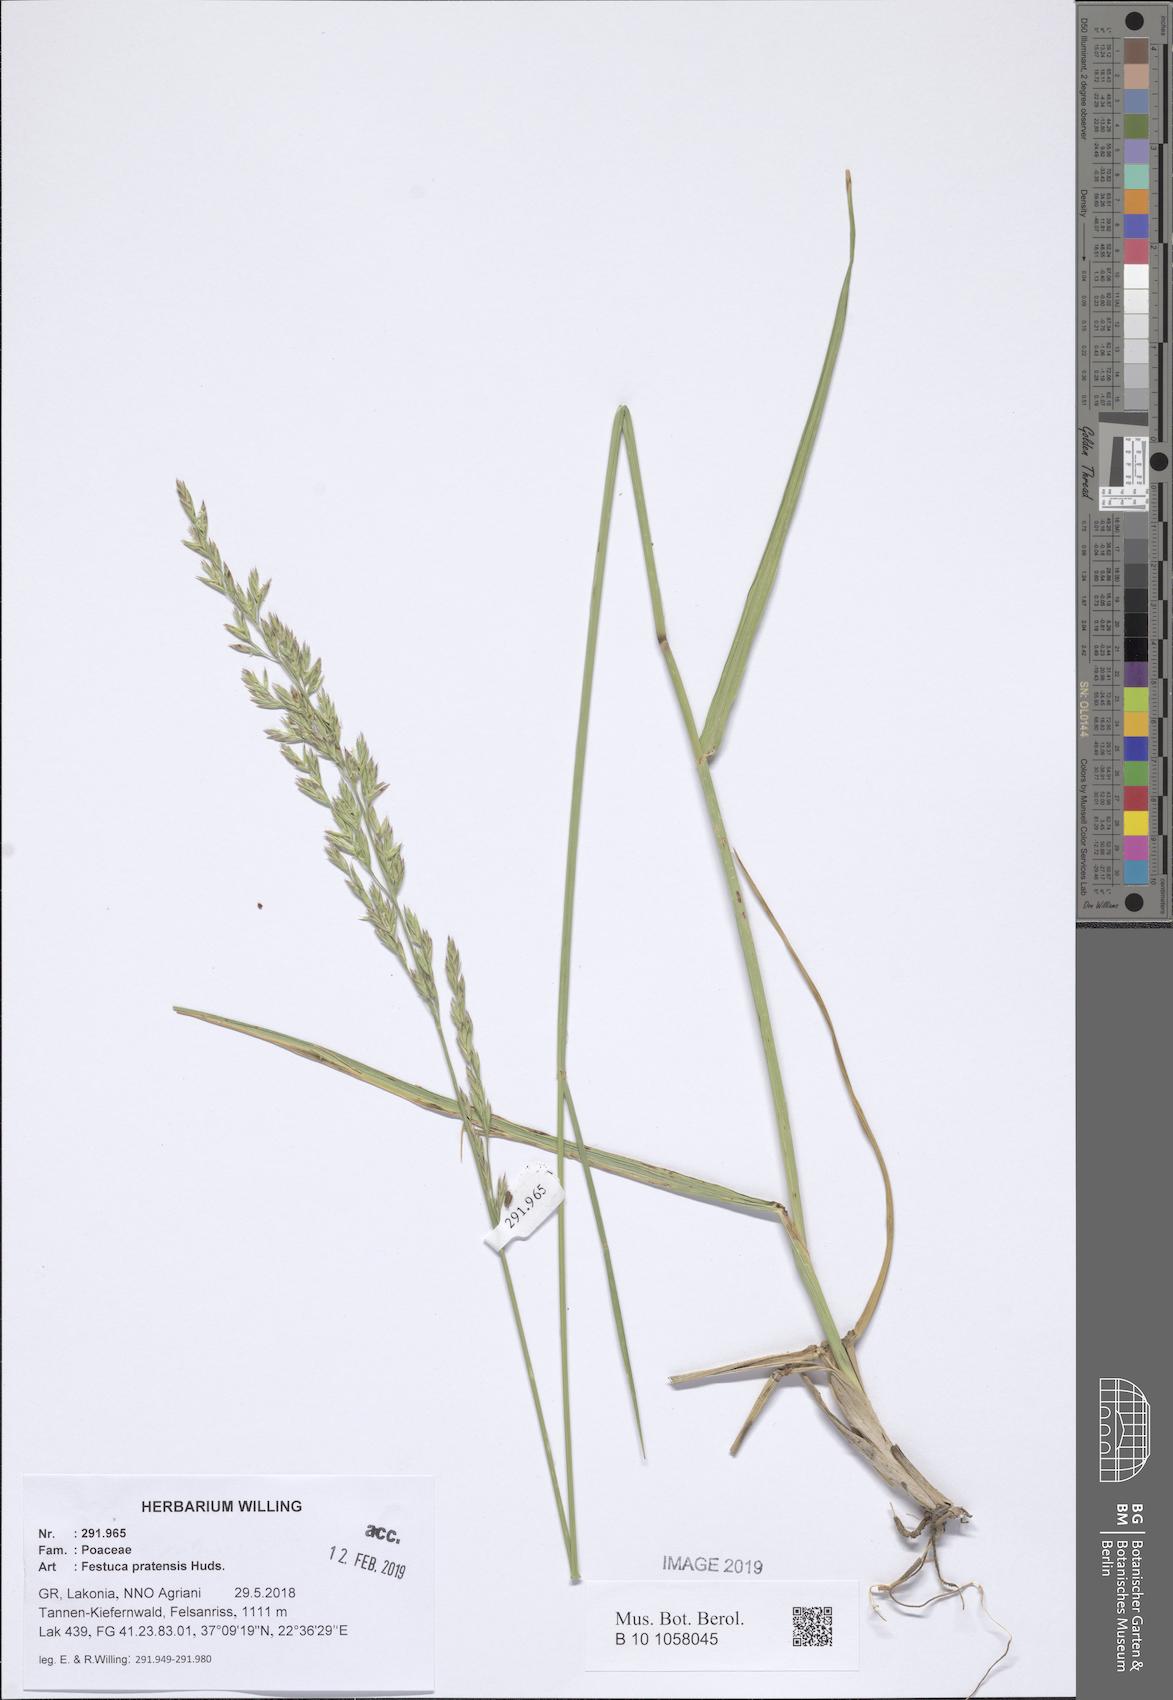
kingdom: Plantae
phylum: Tracheophyta
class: Liliopsida
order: Poales
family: Poaceae
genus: Lolium
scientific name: Lolium pratense
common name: Dover grass
